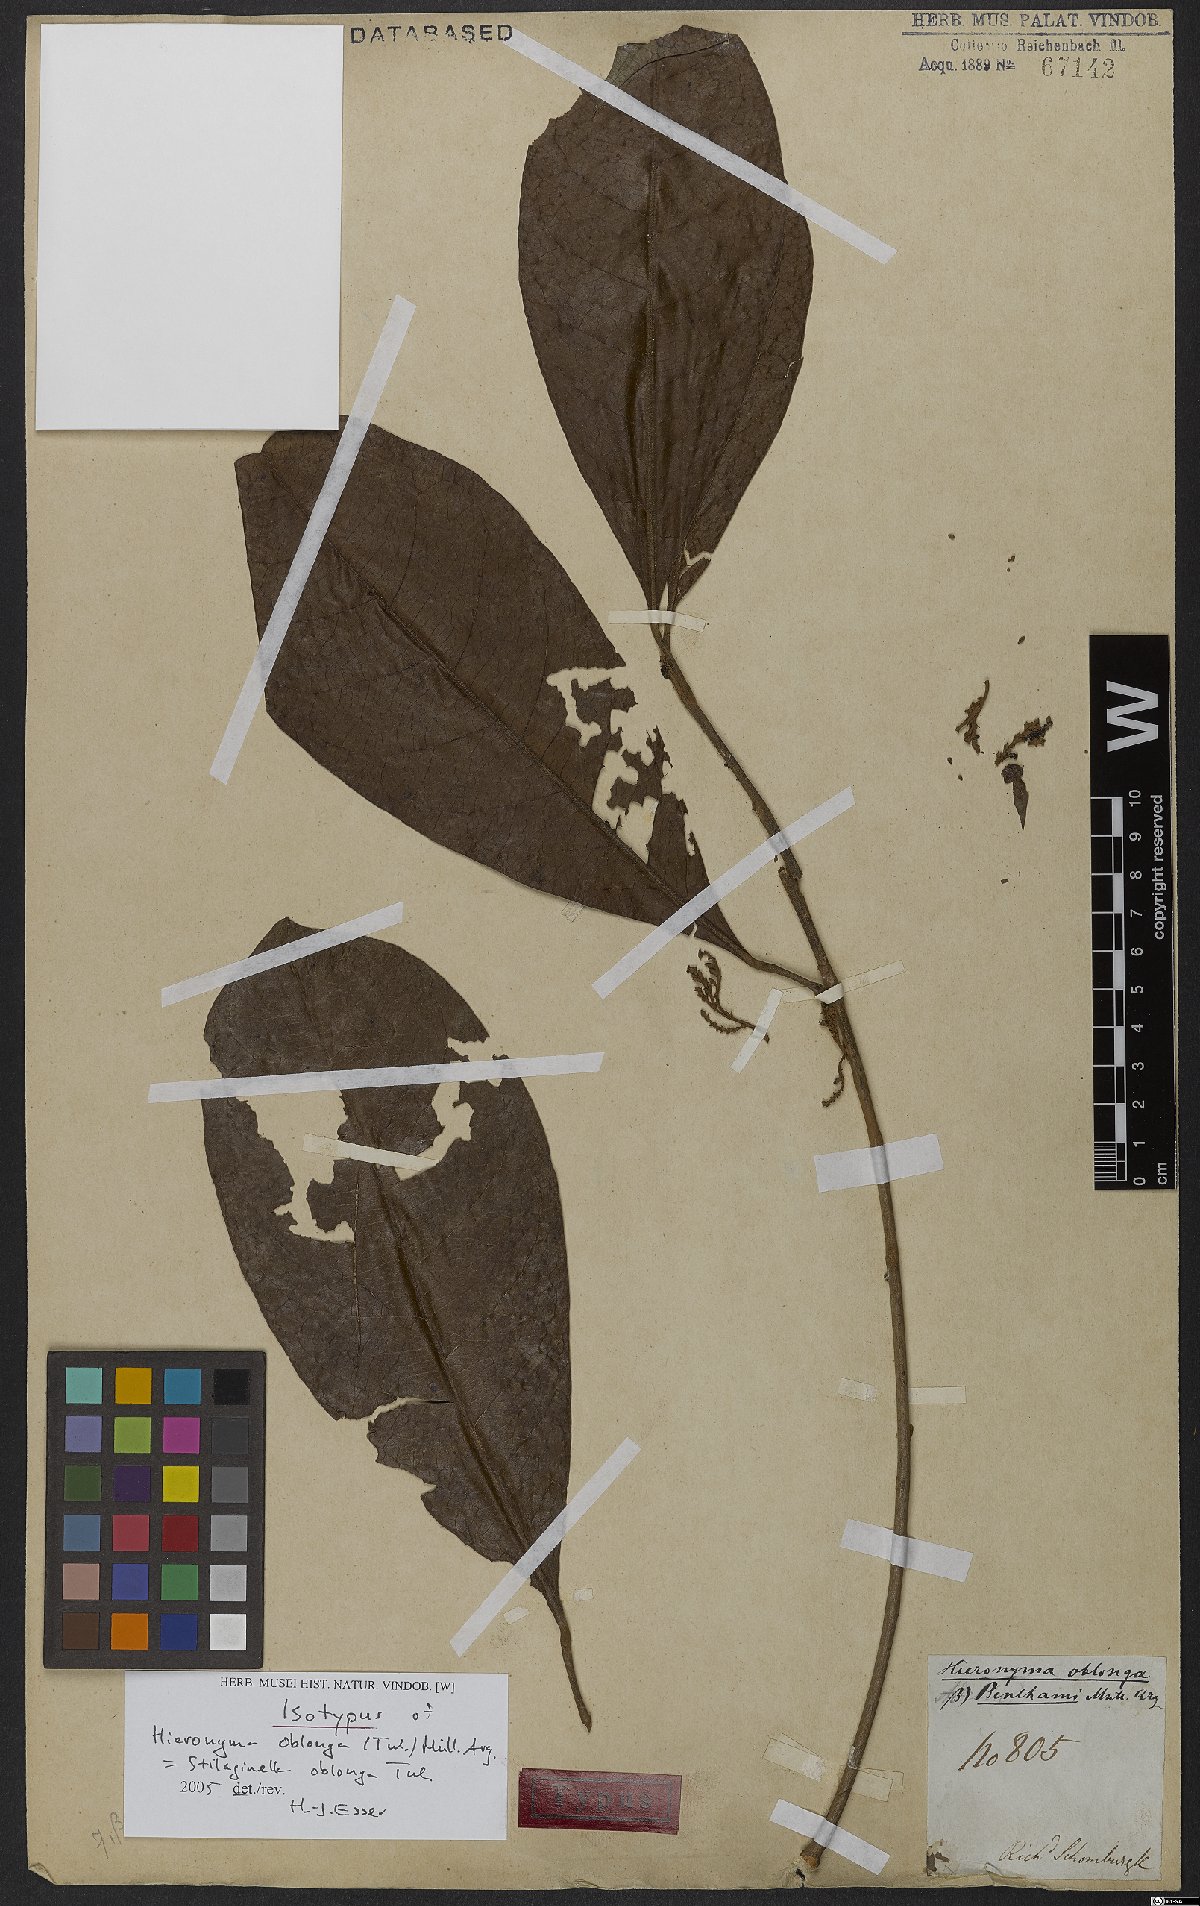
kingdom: Plantae
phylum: Tracheophyta
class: Magnoliopsida
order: Malpighiales
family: Phyllanthaceae
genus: Hieronyma
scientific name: Hieronyma oblonga
